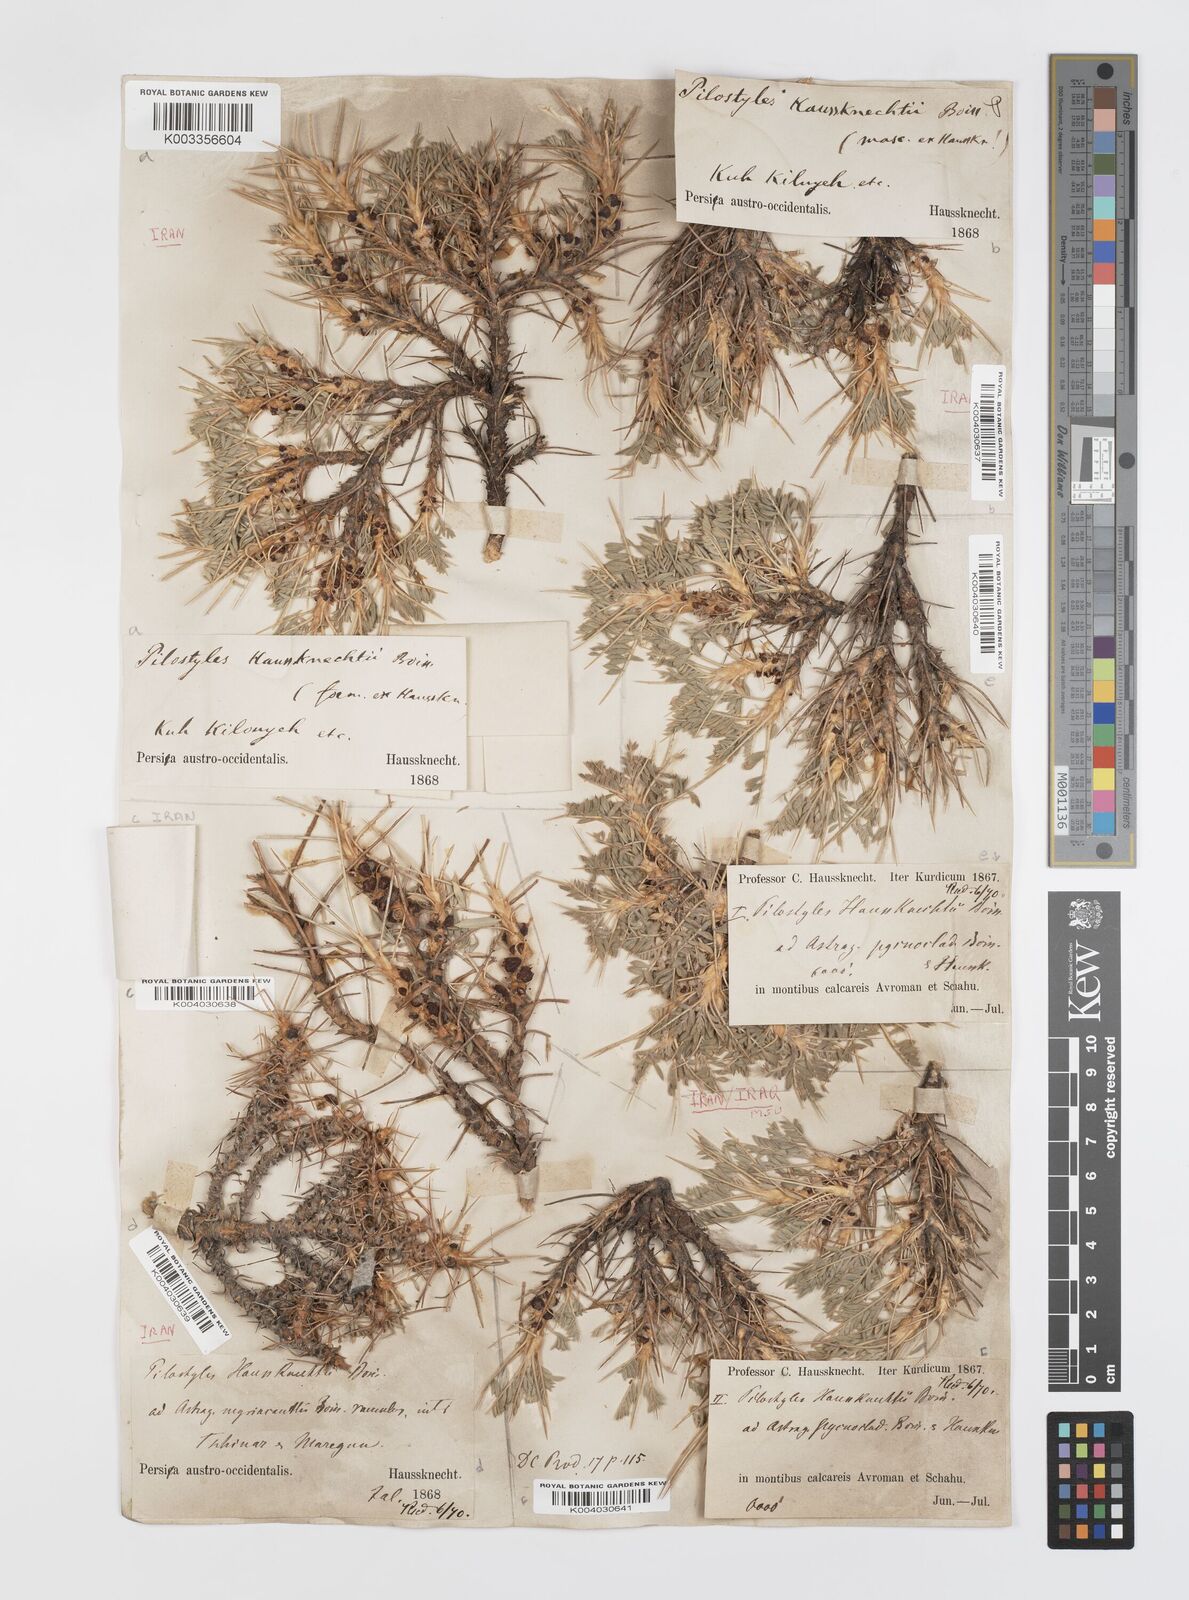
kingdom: Plantae
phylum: Tracheophyta
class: Magnoliopsida
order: Cucurbitales
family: Apodanthaceae
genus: Pilostyles
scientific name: Pilostyles haussknechtii
